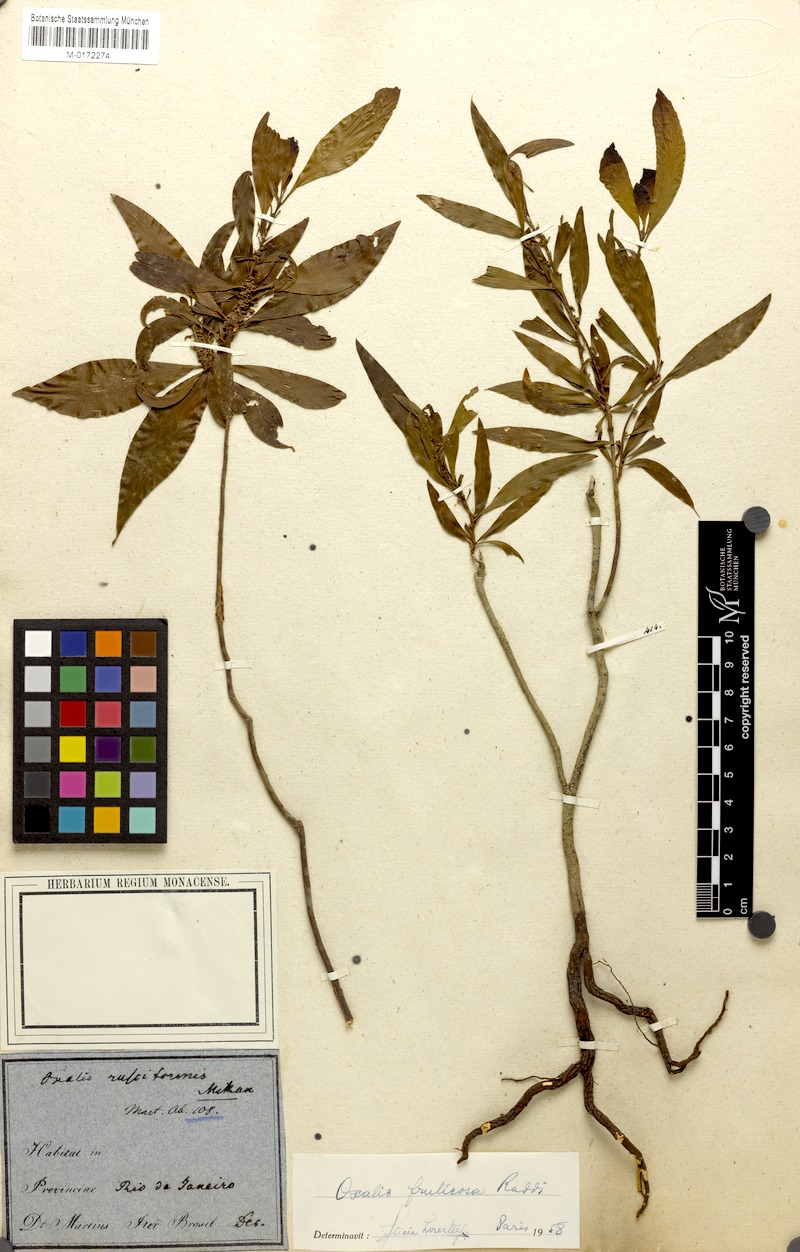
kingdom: Plantae
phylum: Tracheophyta
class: Magnoliopsida
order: Oxalidales
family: Oxalidaceae
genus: Oxalis
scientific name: Oxalis peruviana
